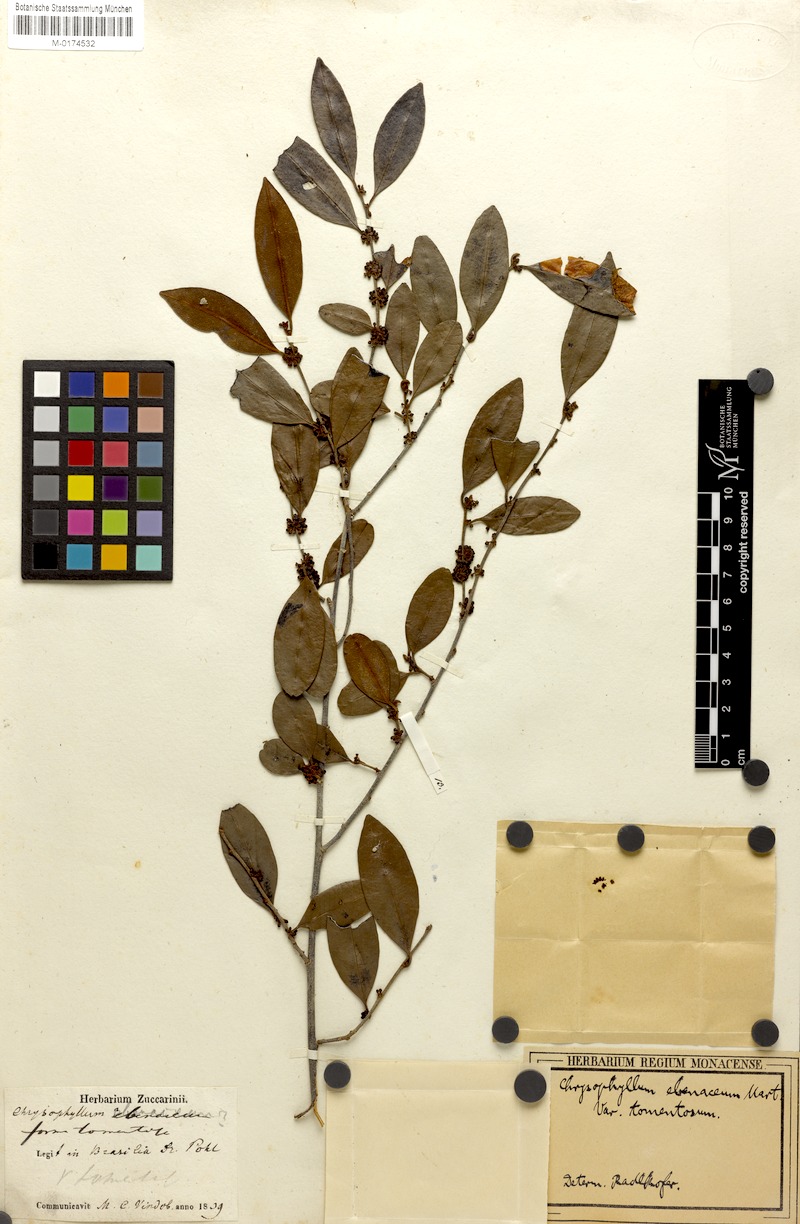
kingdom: Plantae
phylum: Tracheophyta
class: Magnoliopsida
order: Ericales
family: Sapotaceae
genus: Chrysophyllum
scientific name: Chrysophyllum marginatum
